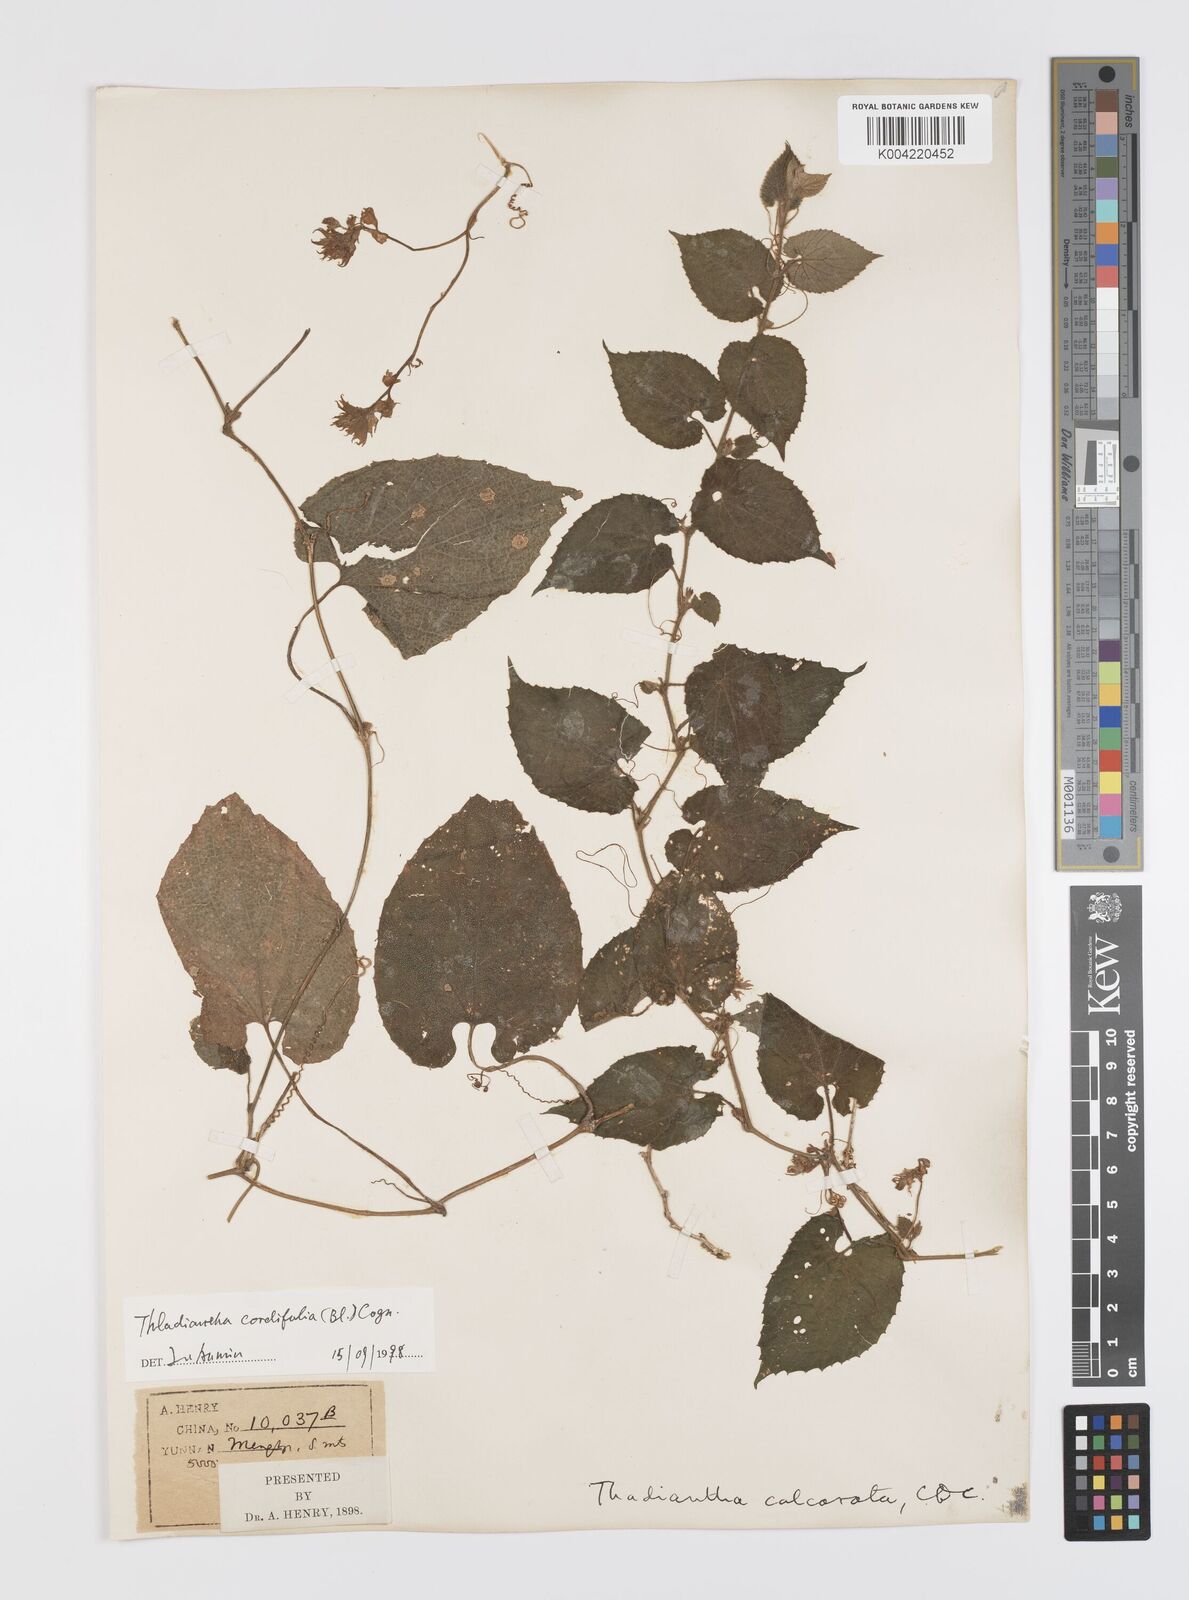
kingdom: Plantae
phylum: Tracheophyta
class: Magnoliopsida
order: Cucurbitales
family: Cucurbitaceae
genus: Thladiantha
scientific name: Thladiantha cordifolia
